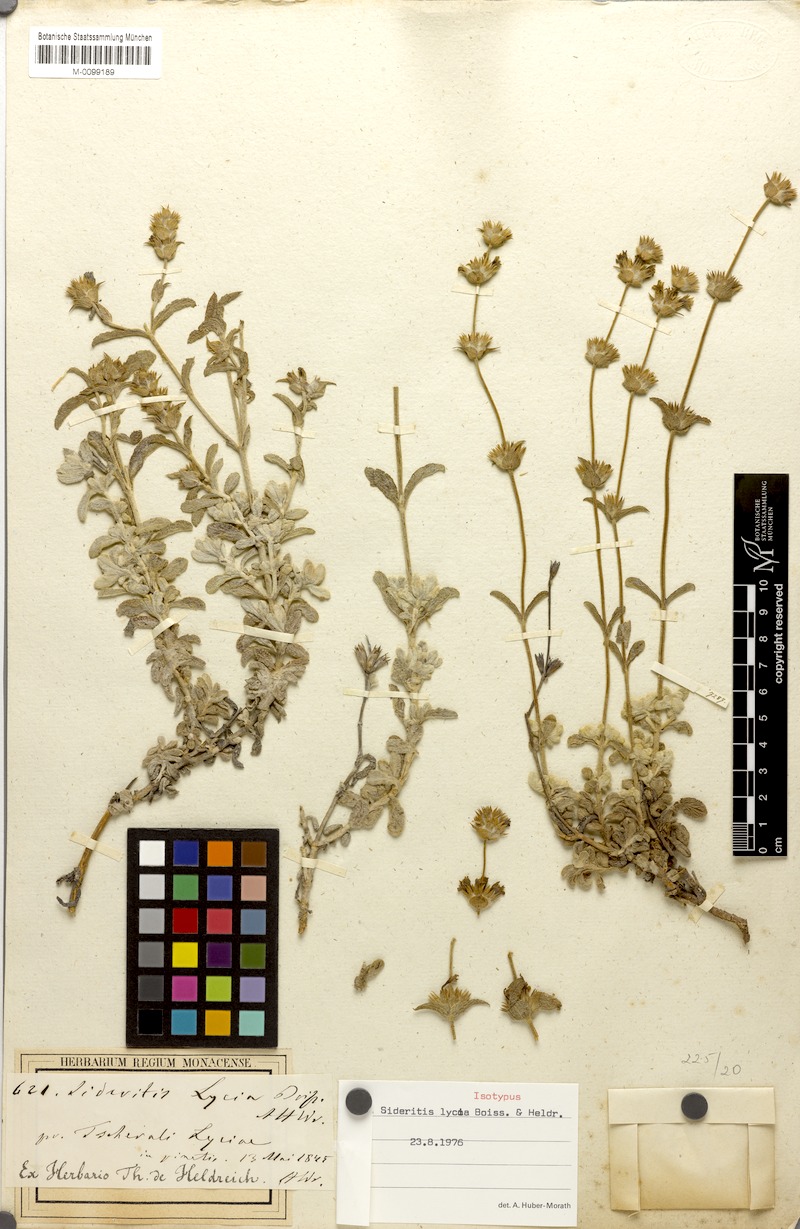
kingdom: Plantae
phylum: Tracheophyta
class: Magnoliopsida
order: Lamiales
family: Lamiaceae
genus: Sideritis
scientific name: Sideritis lycia
